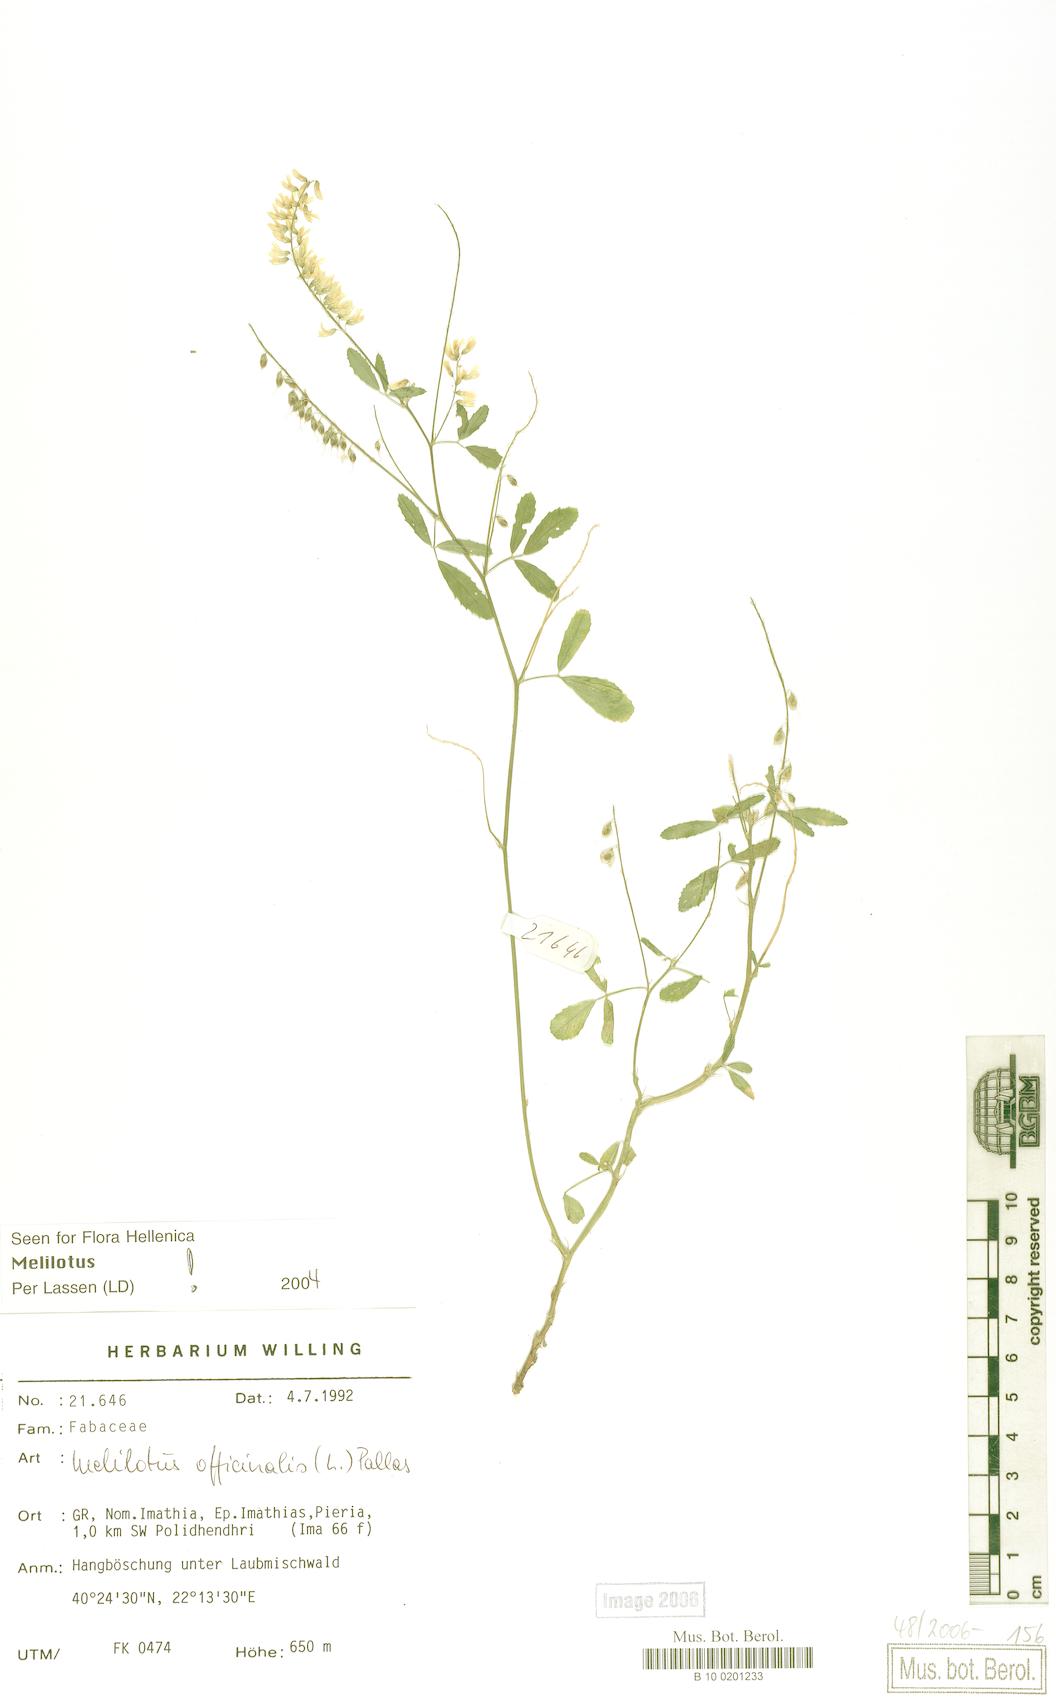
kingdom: Plantae
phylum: Tracheophyta
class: Magnoliopsida
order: Fabales
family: Fabaceae
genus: Melilotus
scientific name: Melilotus officinalis
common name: Sweetclover
